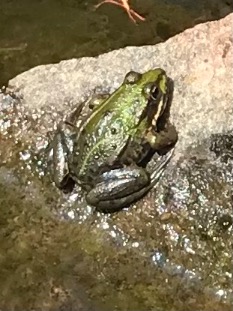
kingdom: Animalia
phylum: Chordata
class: Amphibia
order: Anura
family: Ranidae
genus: Pelophylax
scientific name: Pelophylax lessonae
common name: Grøn frø
